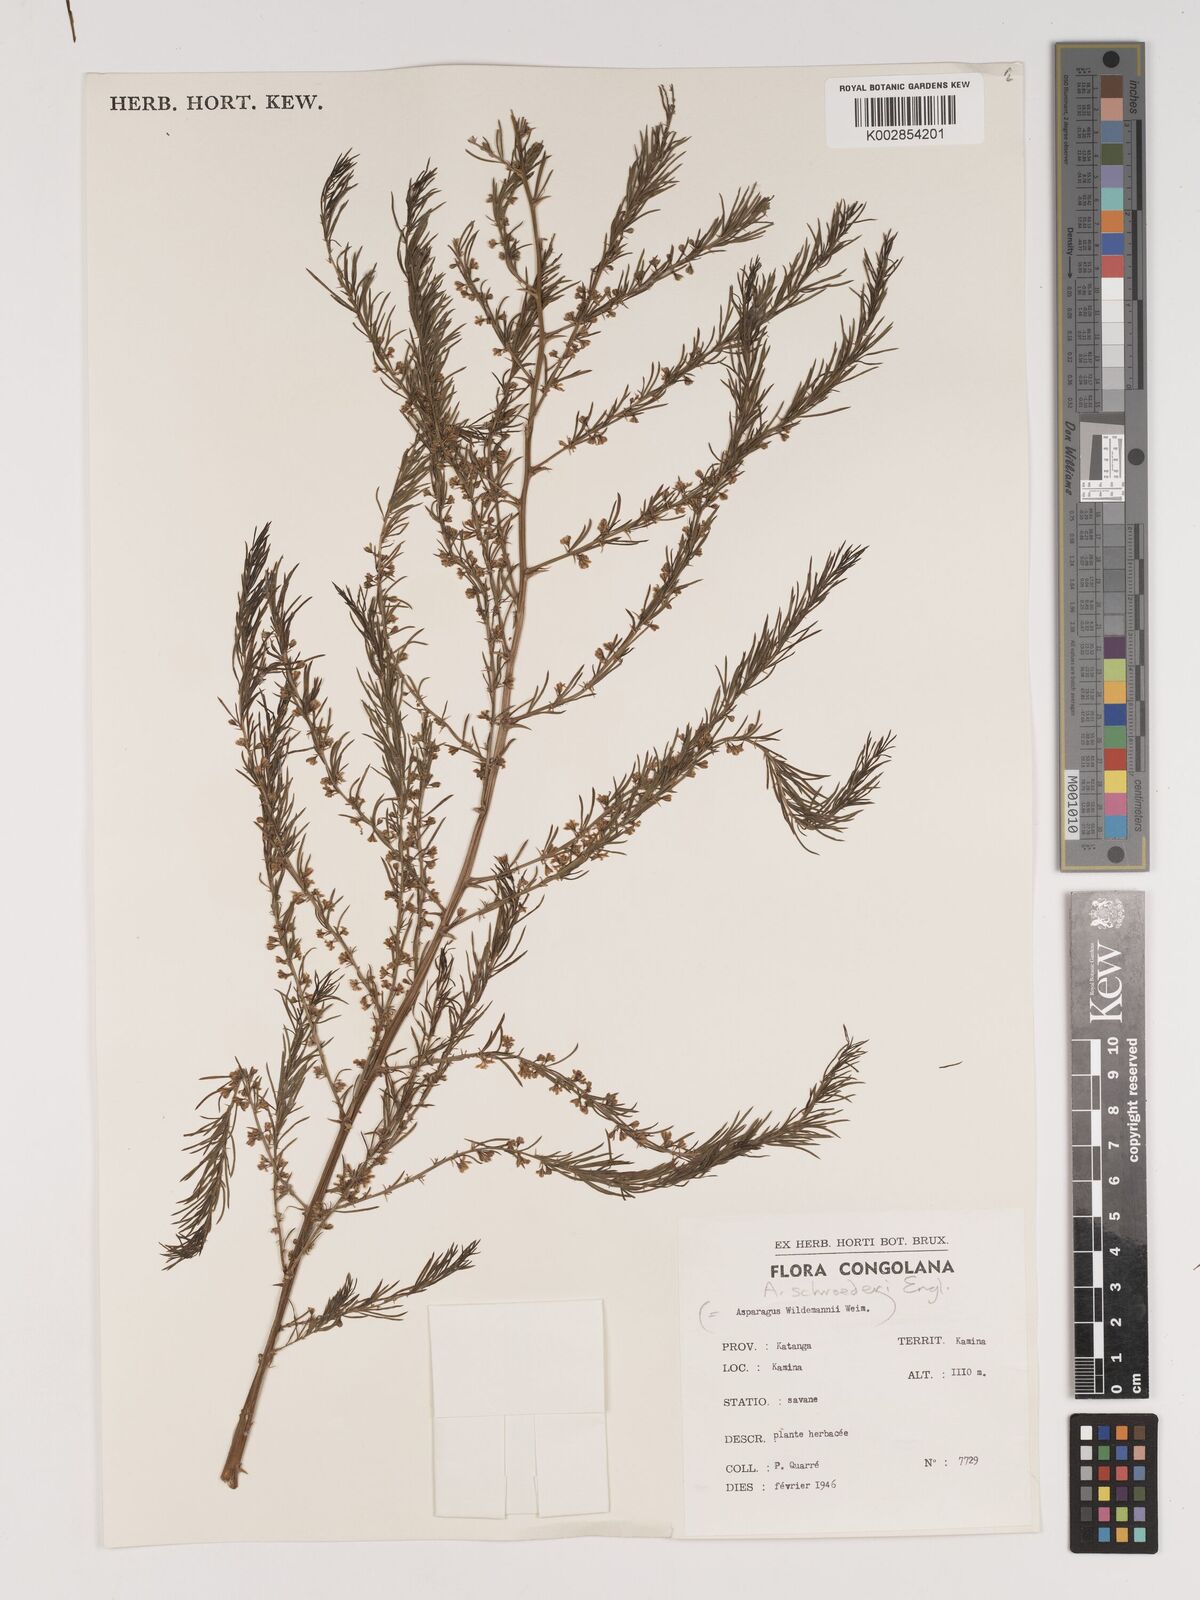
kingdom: Plantae
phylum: Tracheophyta
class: Liliopsida
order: Asparagales
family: Asparagaceae
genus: Asparagus
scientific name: Asparagus schroederi
